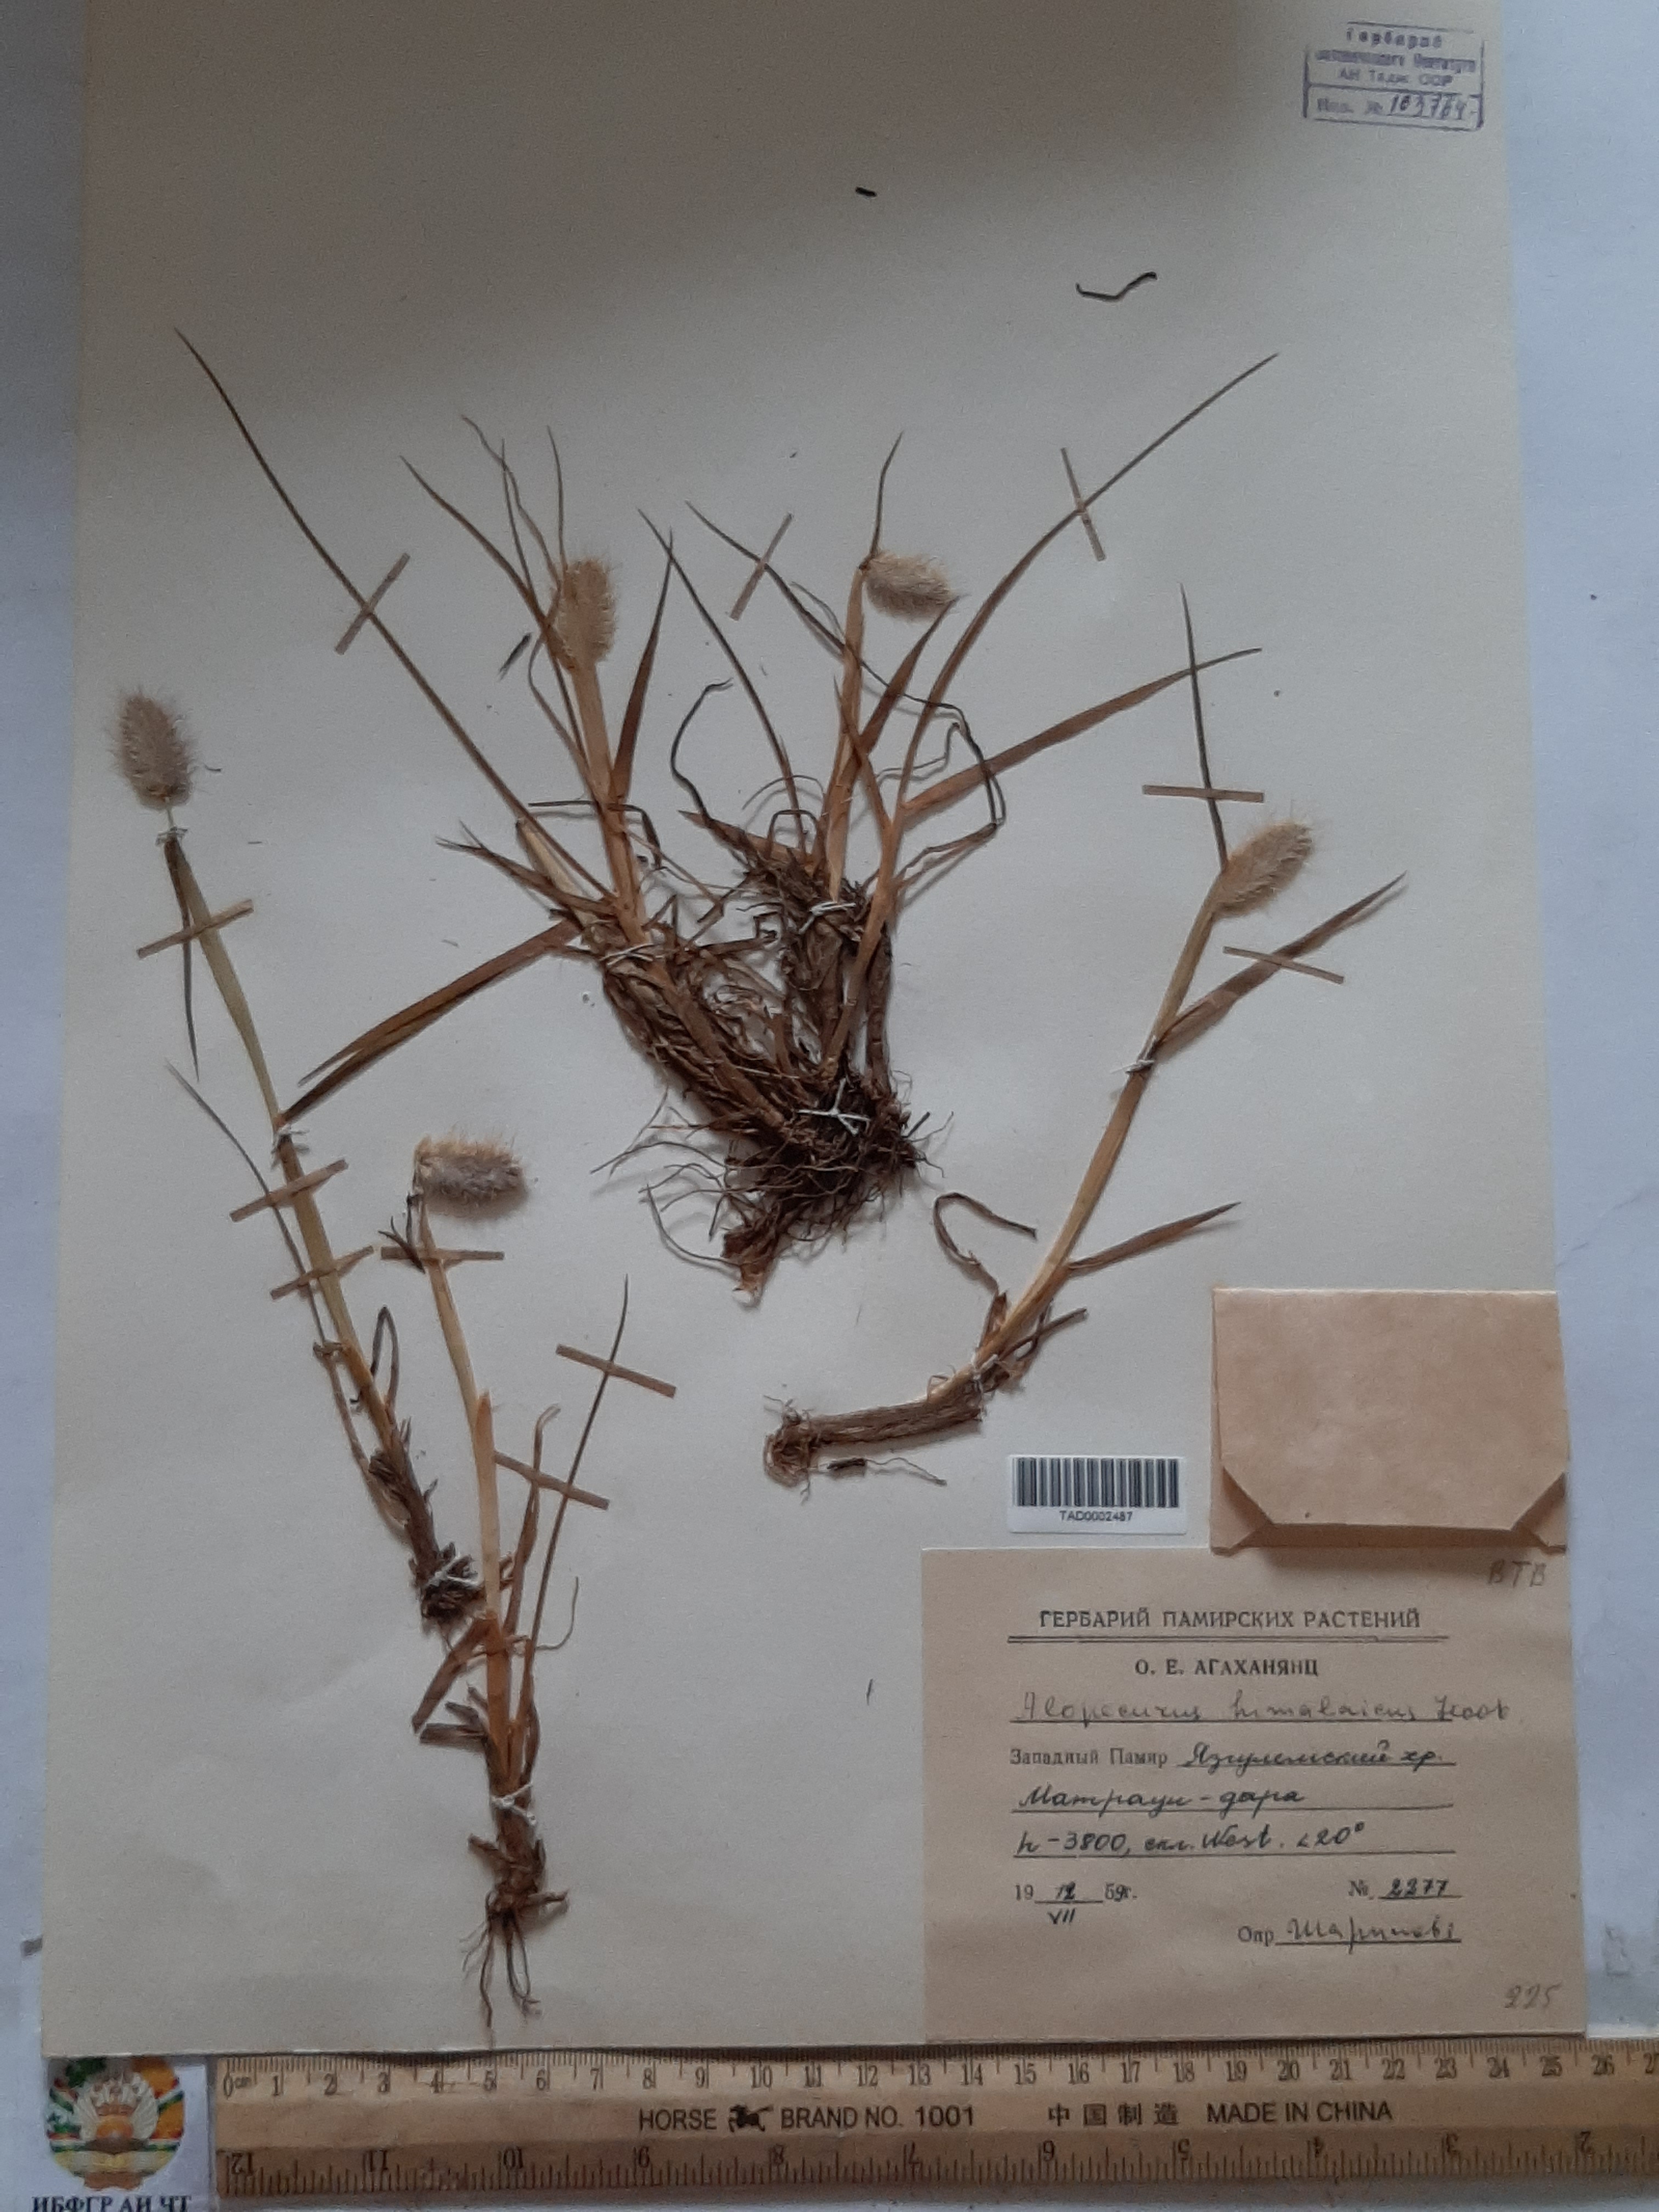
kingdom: Plantae
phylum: Tracheophyta
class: Liliopsida
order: Poales
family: Poaceae
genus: Alopecurus
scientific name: Alopecurus himalaicus
